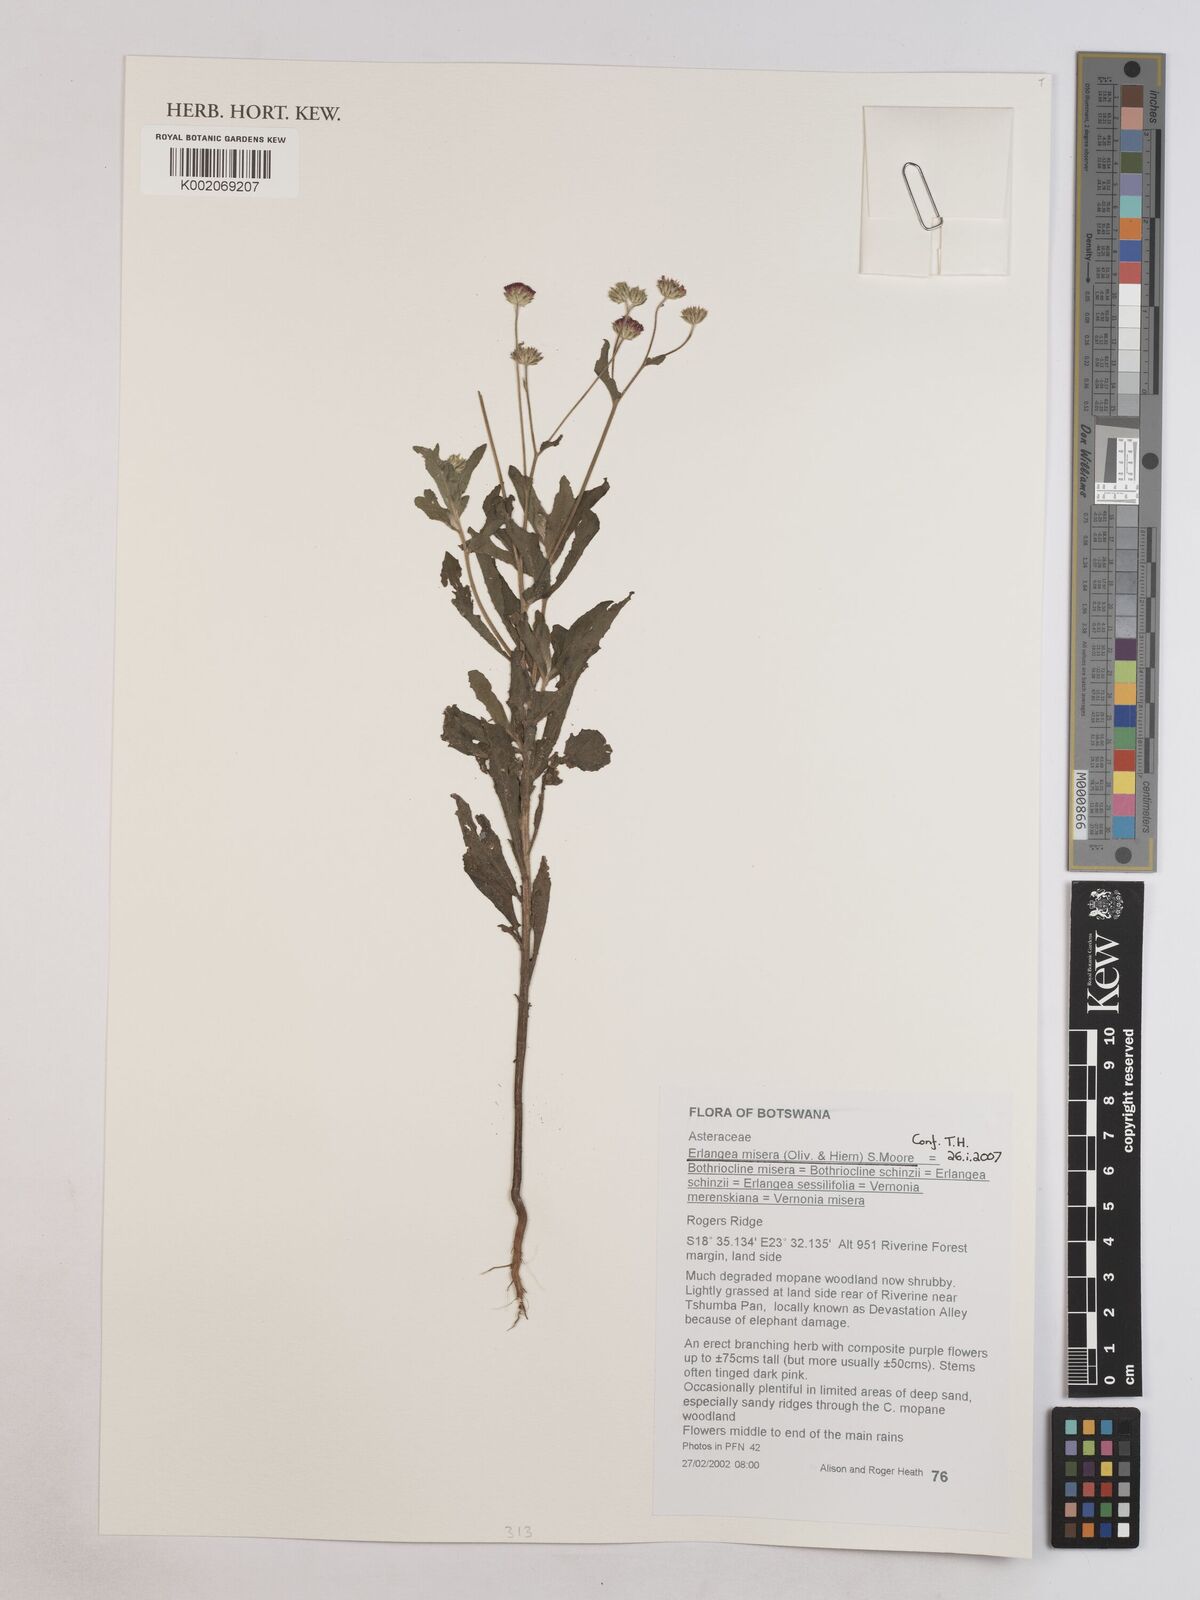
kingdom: Plantae
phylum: Tracheophyta
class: Magnoliopsida
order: Asterales
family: Asteraceae
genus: Erlangea
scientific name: Erlangea misera
